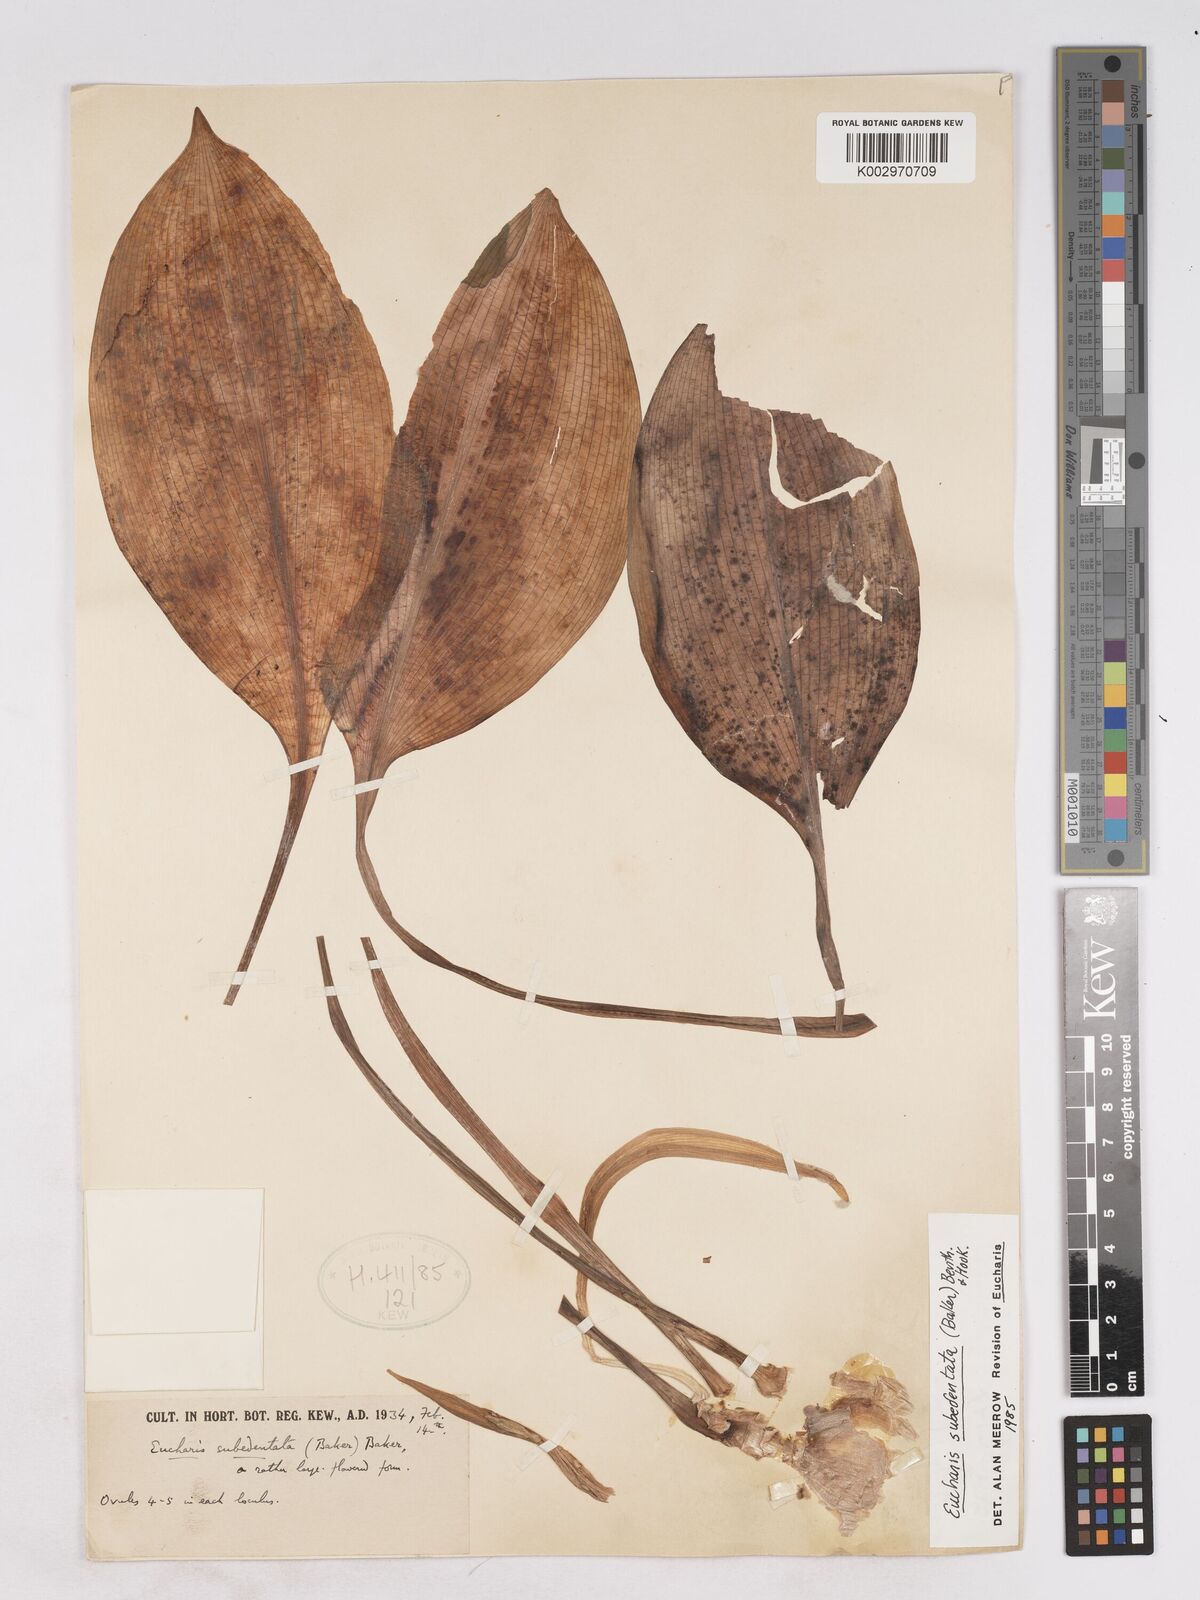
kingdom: Plantae
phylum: Tracheophyta
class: Liliopsida
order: Asparagales
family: Amaryllidaceae
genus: Urceolina
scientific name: Urceolina subedentata
